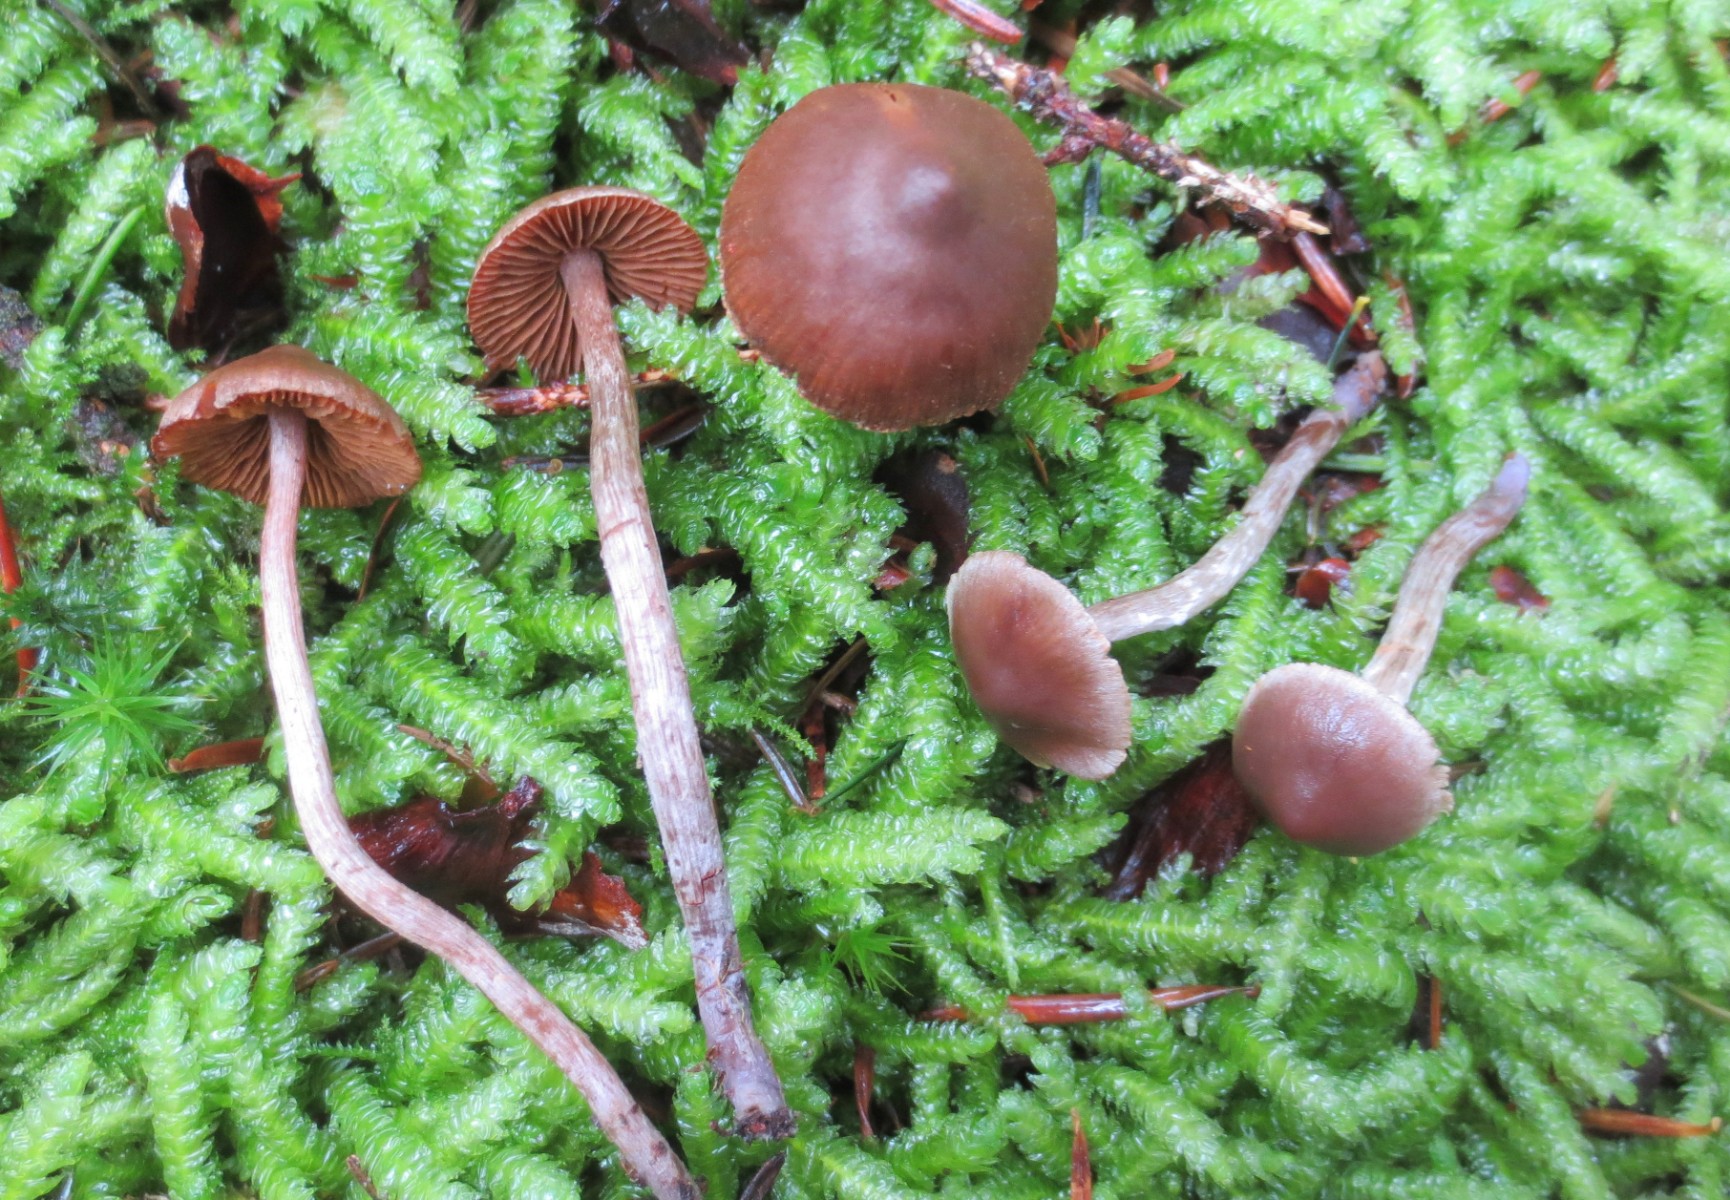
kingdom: Fungi
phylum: Basidiomycota
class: Agaricomycetes
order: Agaricales
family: Cortinariaceae
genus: Cortinarius
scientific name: Cortinarius
